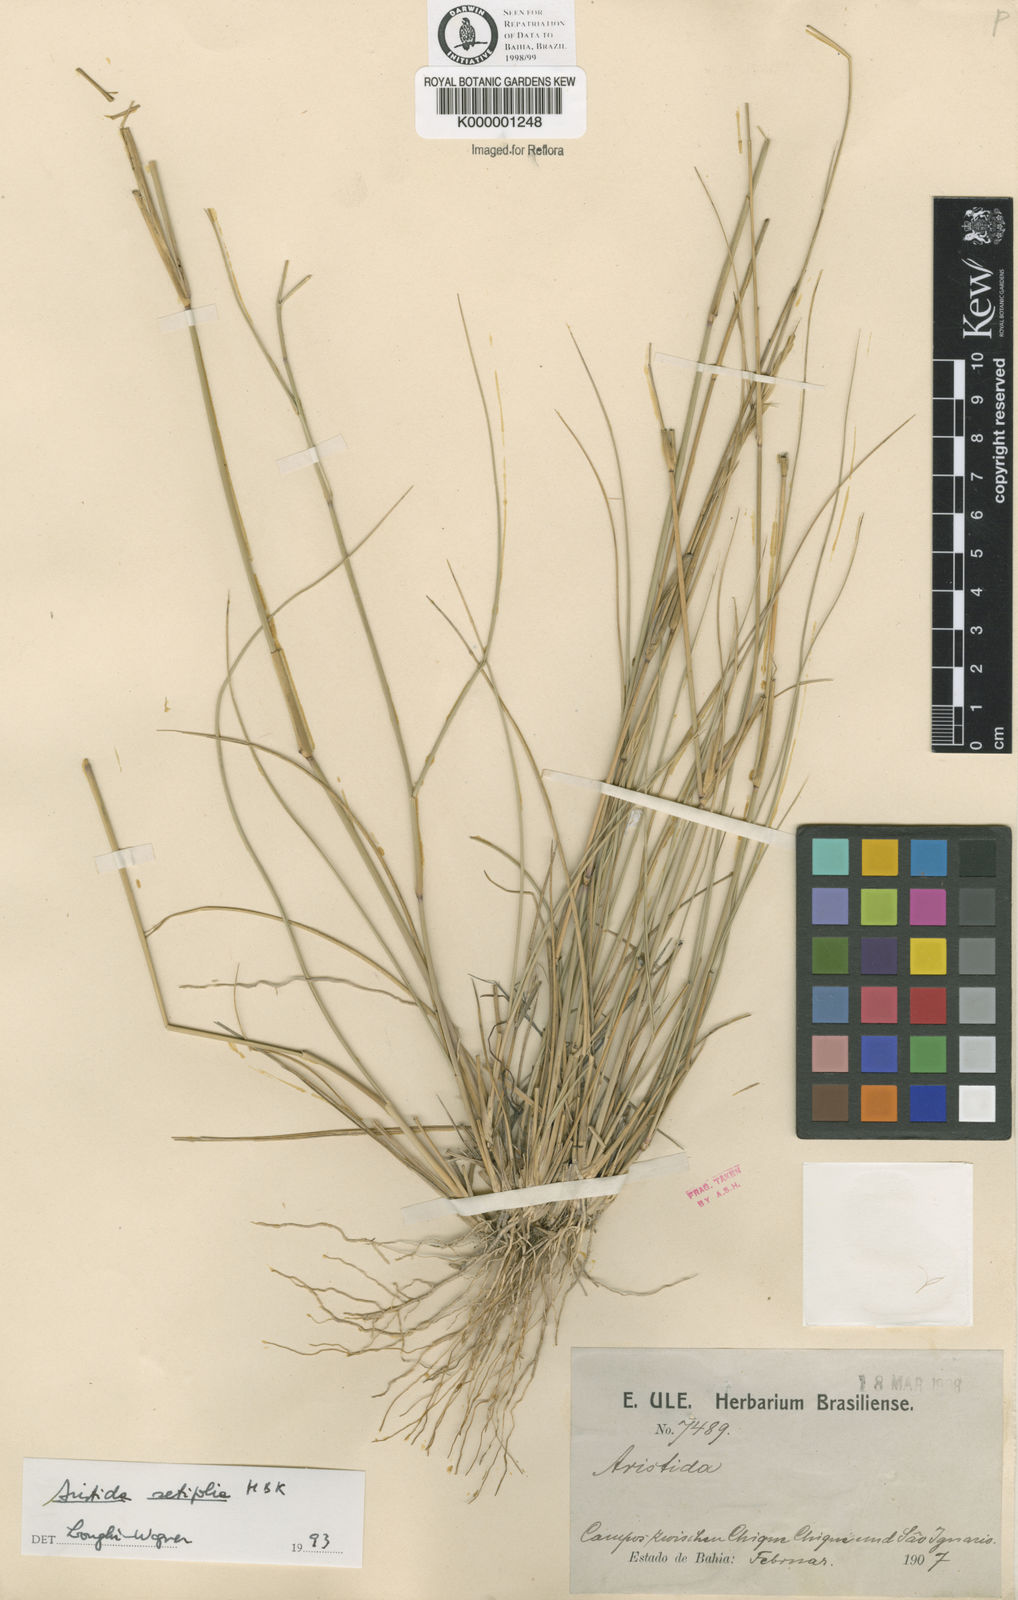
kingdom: Plantae
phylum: Tracheophyta
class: Liliopsida
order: Poales
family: Poaceae
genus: Aristida
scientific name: Aristida setifolia
